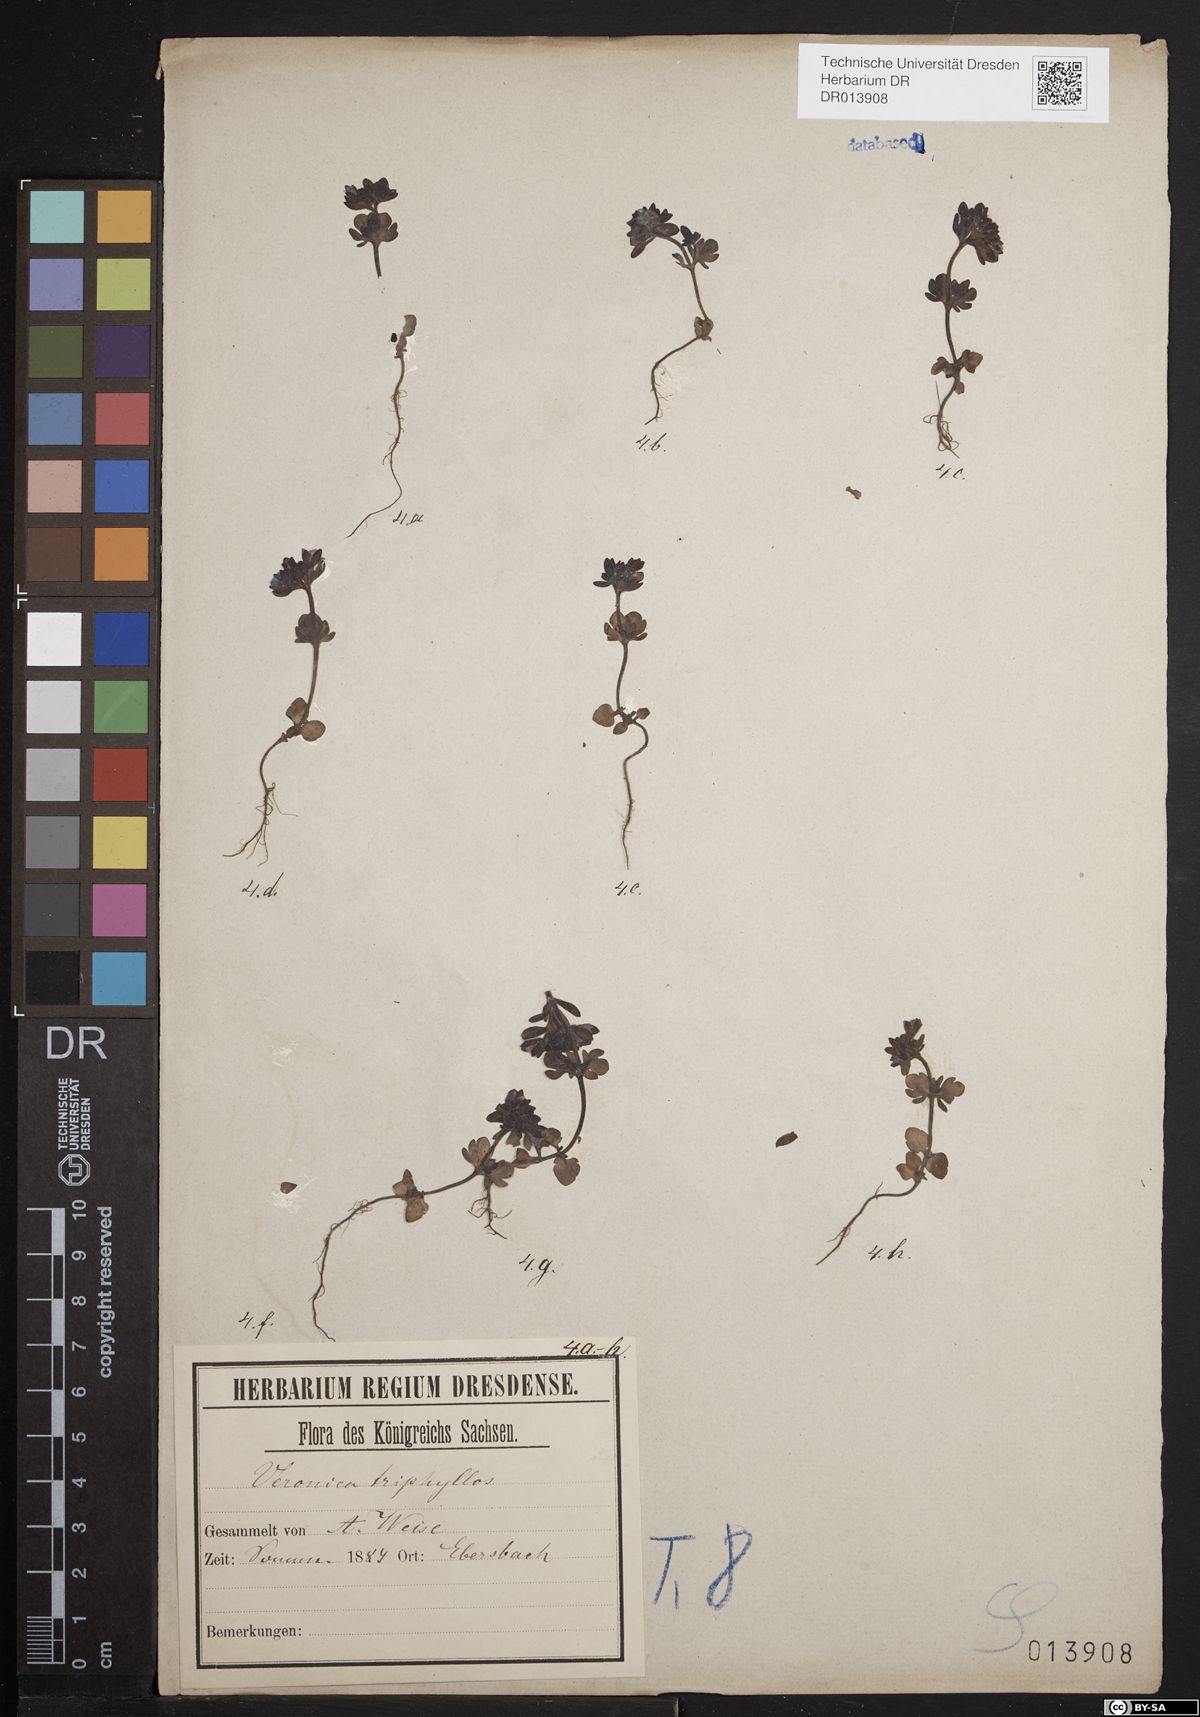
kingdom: Plantae
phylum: Tracheophyta
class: Magnoliopsida
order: Lamiales
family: Plantaginaceae
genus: Veronica
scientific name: Veronica triphyllos
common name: Fingered speedwell
